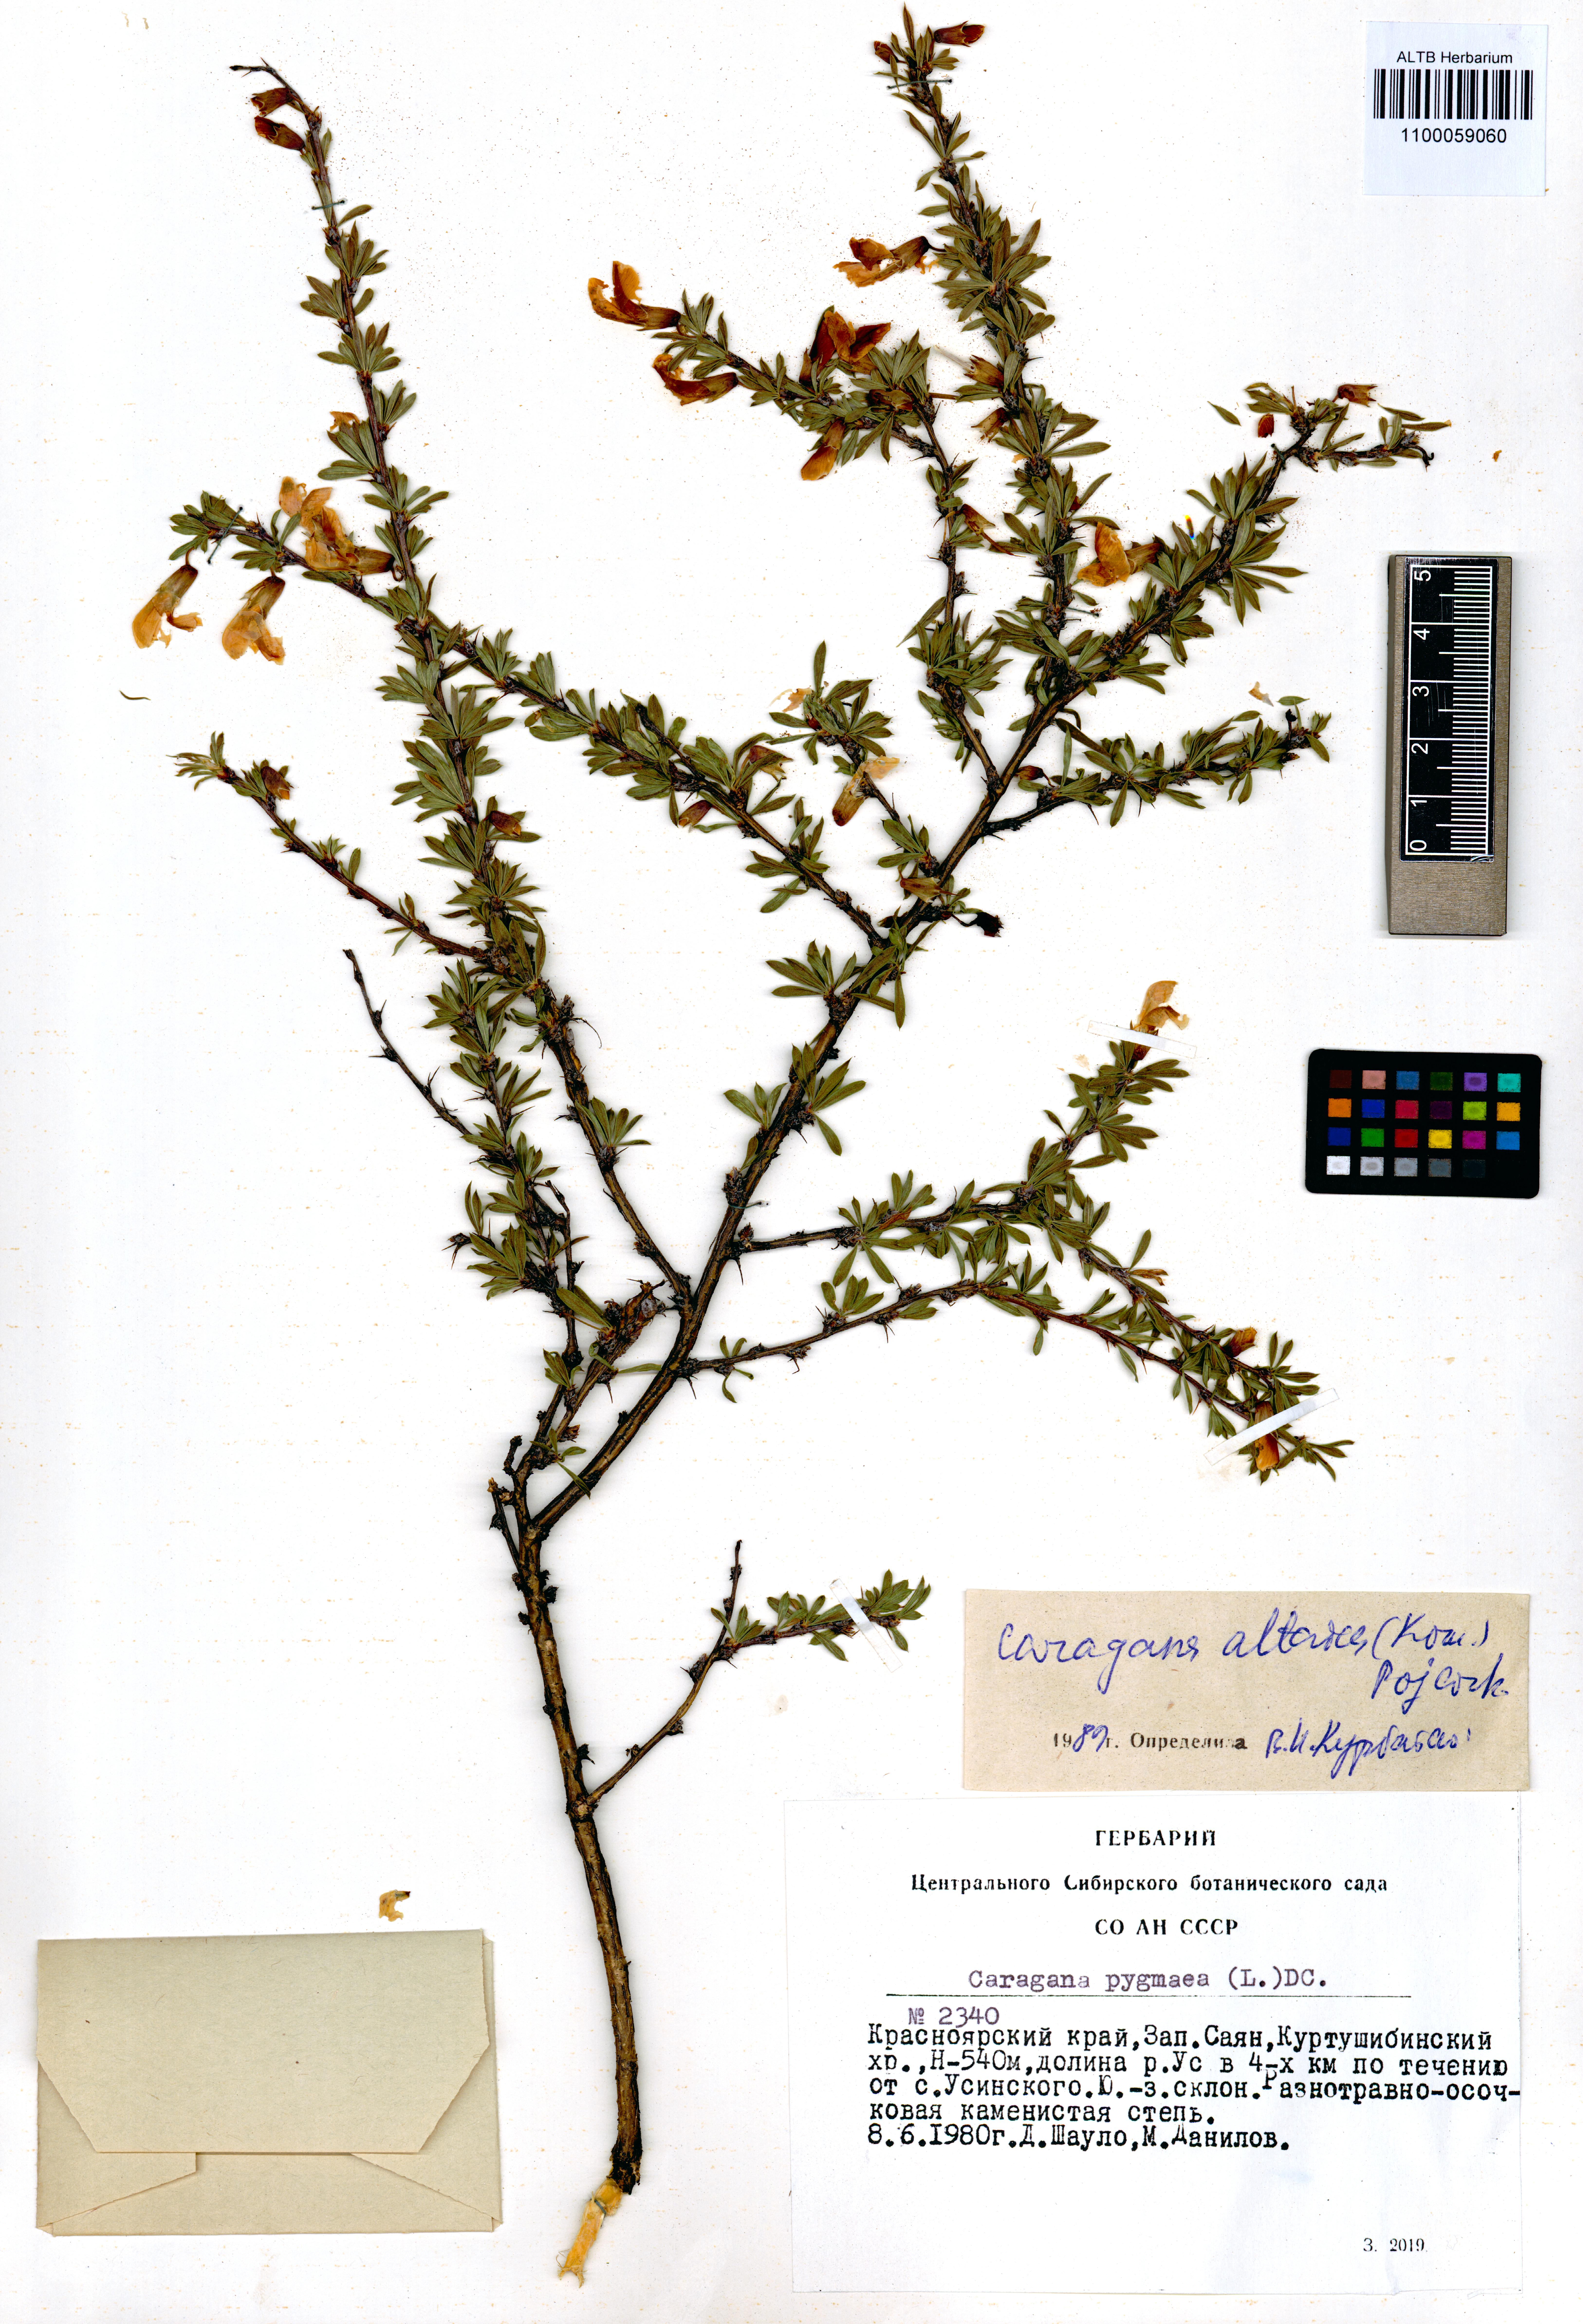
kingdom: Plantae
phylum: Tracheophyta
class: Magnoliopsida
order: Fabales
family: Fabaceae
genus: Caragana
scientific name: Caragana pygmaea
